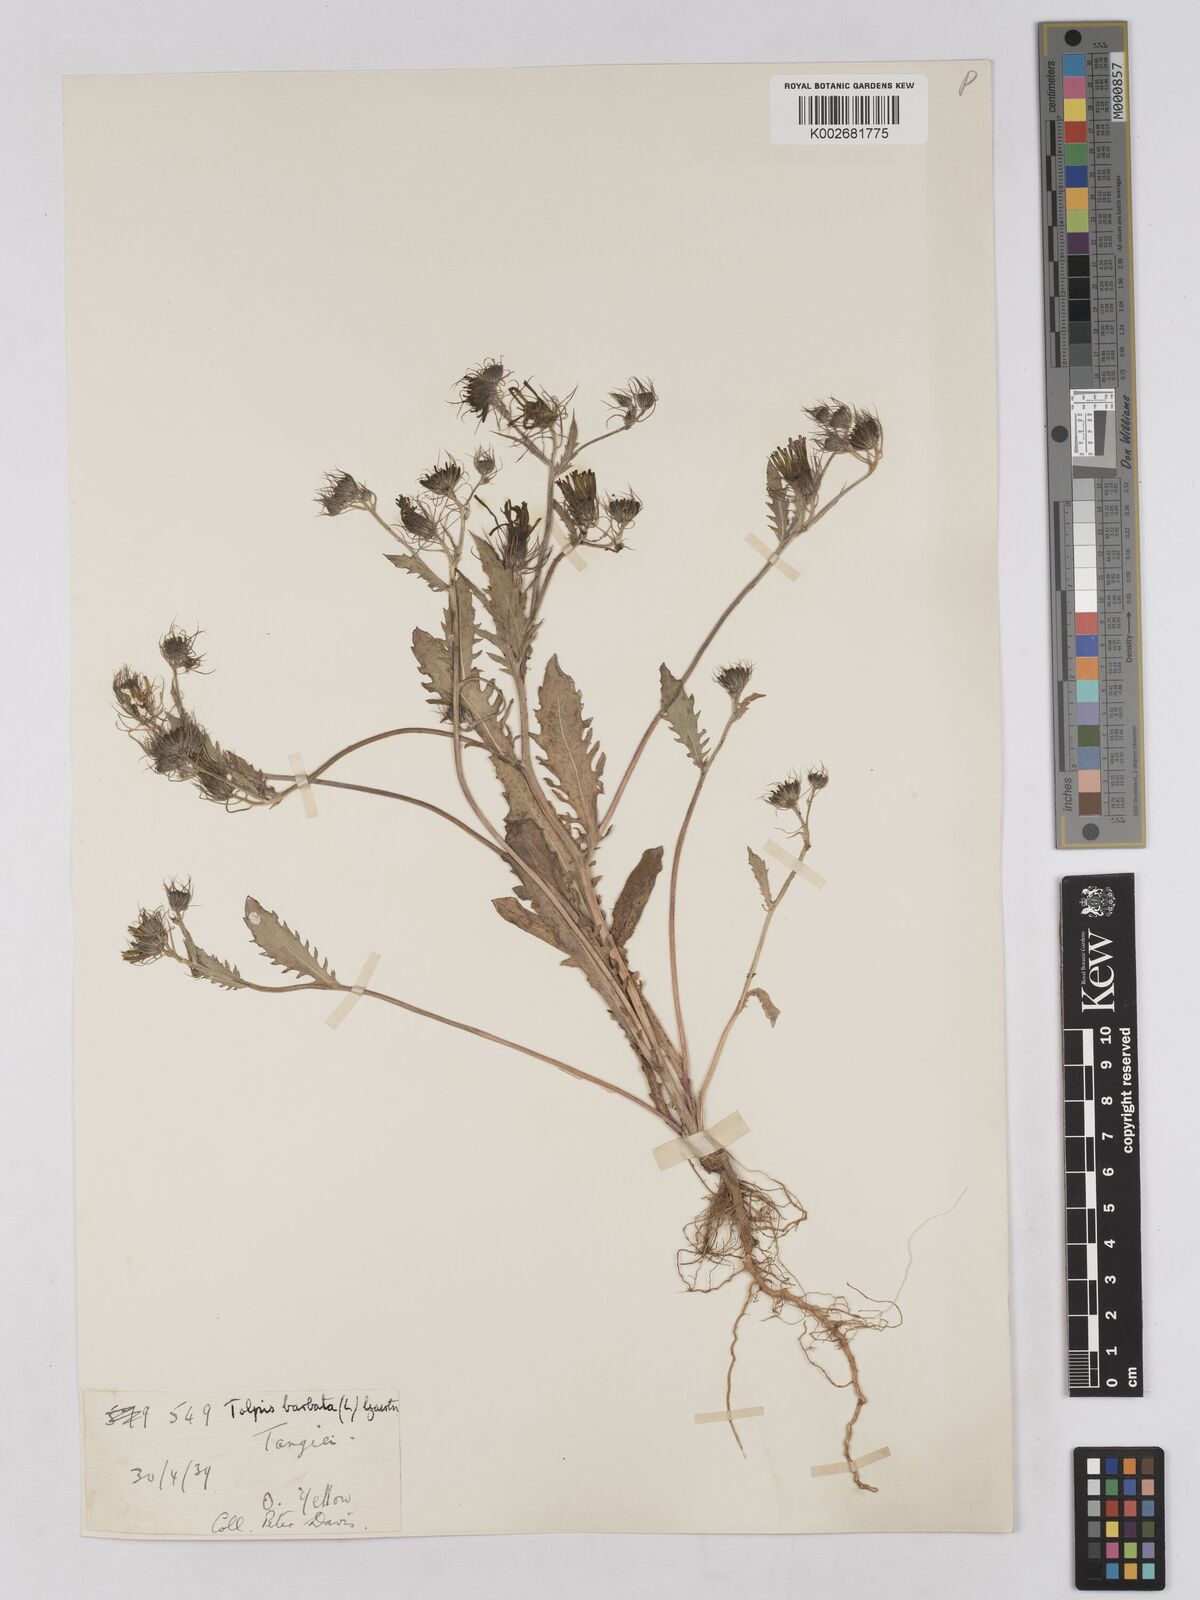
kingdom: Plantae
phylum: Tracheophyta
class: Magnoliopsida
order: Asterales
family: Asteraceae
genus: Tolpis
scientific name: Tolpis barbata
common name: Yellow hawkweed
